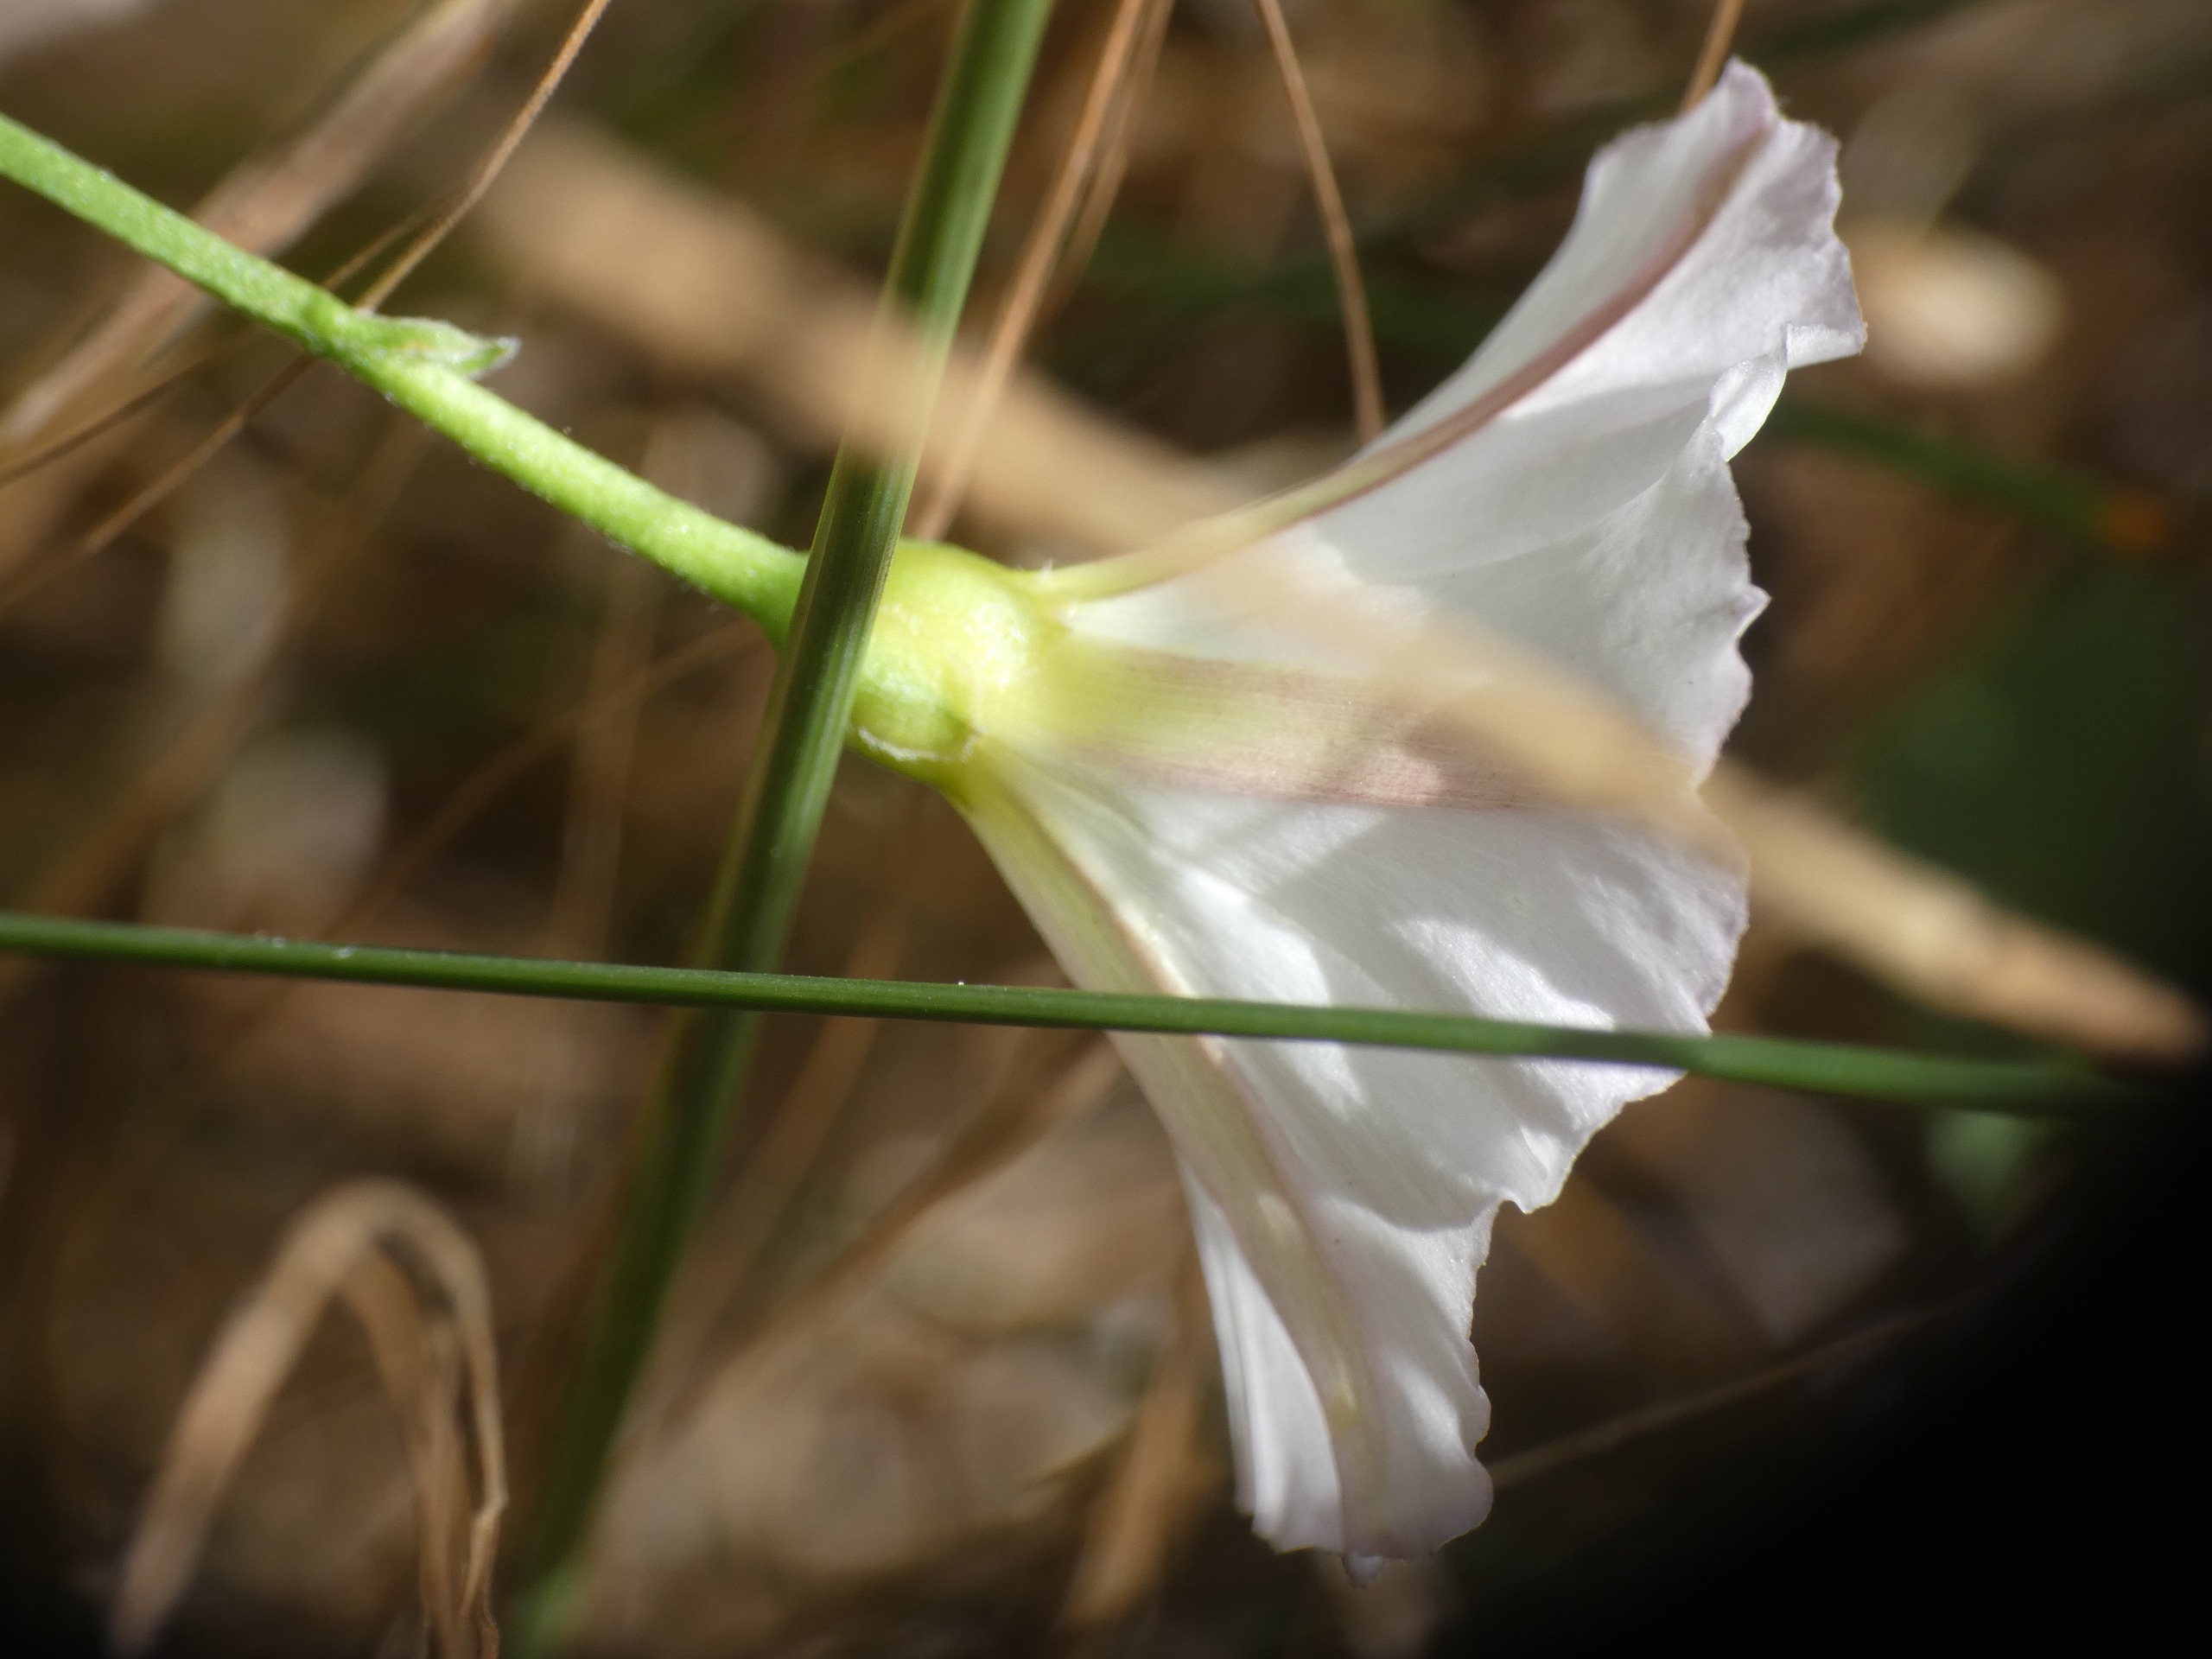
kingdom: Plantae
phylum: Tracheophyta
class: Magnoliopsida
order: Solanales
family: Convolvulaceae
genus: Convolvulus
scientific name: Convolvulus arvensis
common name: Ager-snerle
